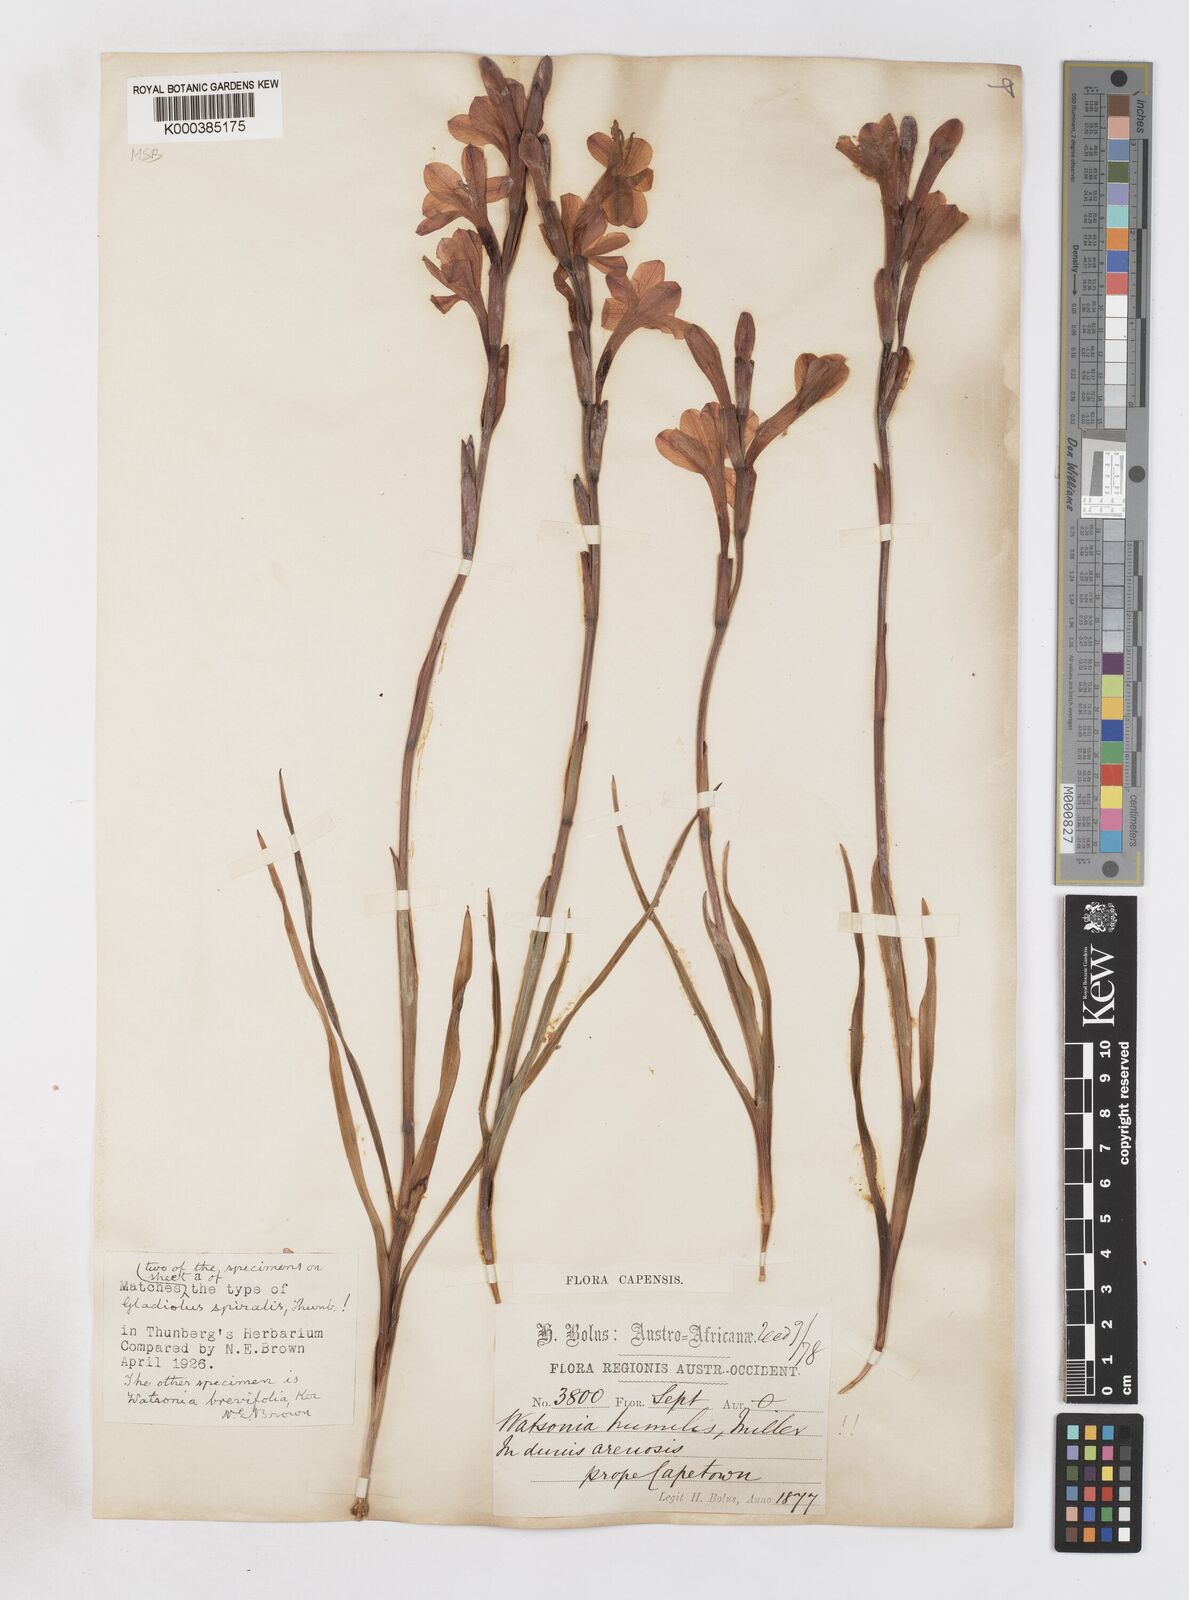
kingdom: Plantae
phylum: Tracheophyta
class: Liliopsida
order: Asparagales
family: Iridaceae
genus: Watsonia
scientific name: Watsonia humilis
